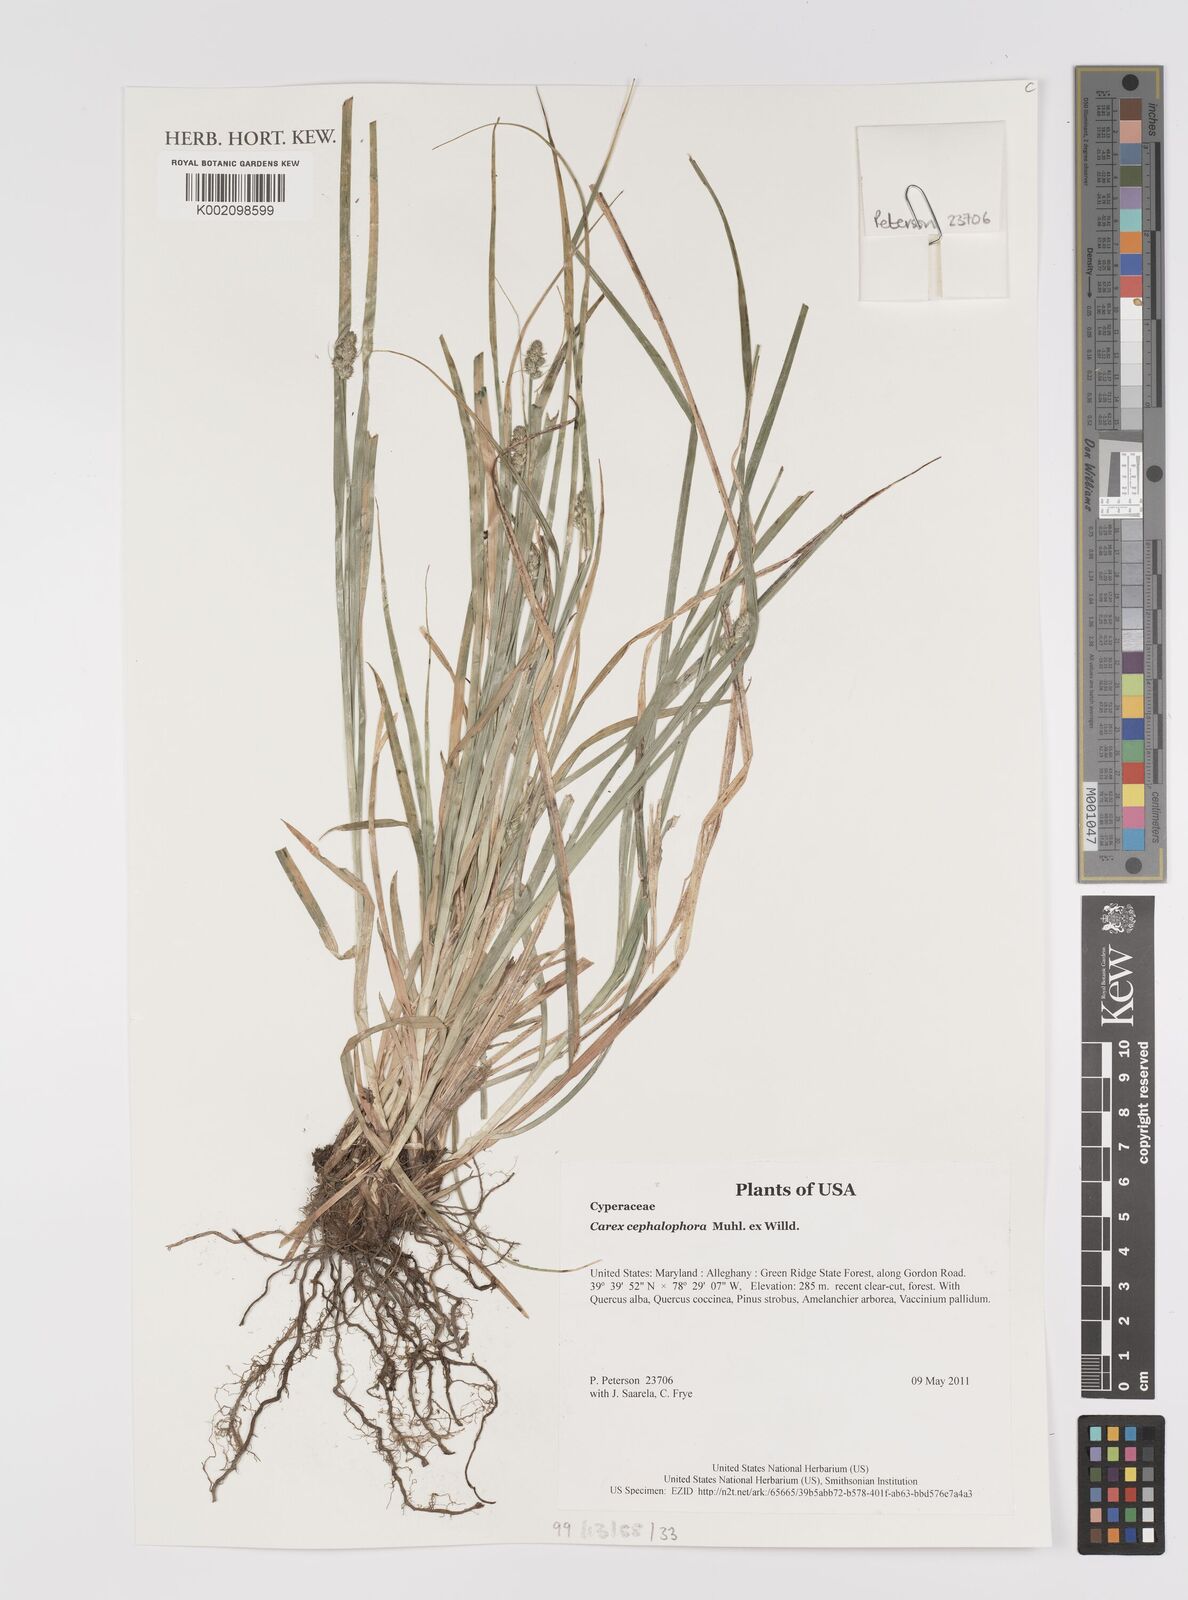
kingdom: Plantae
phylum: Tracheophyta
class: Liliopsida
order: Poales
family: Cyperaceae
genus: Carex
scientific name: Carex cephalophora
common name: Oval-headed sedge
